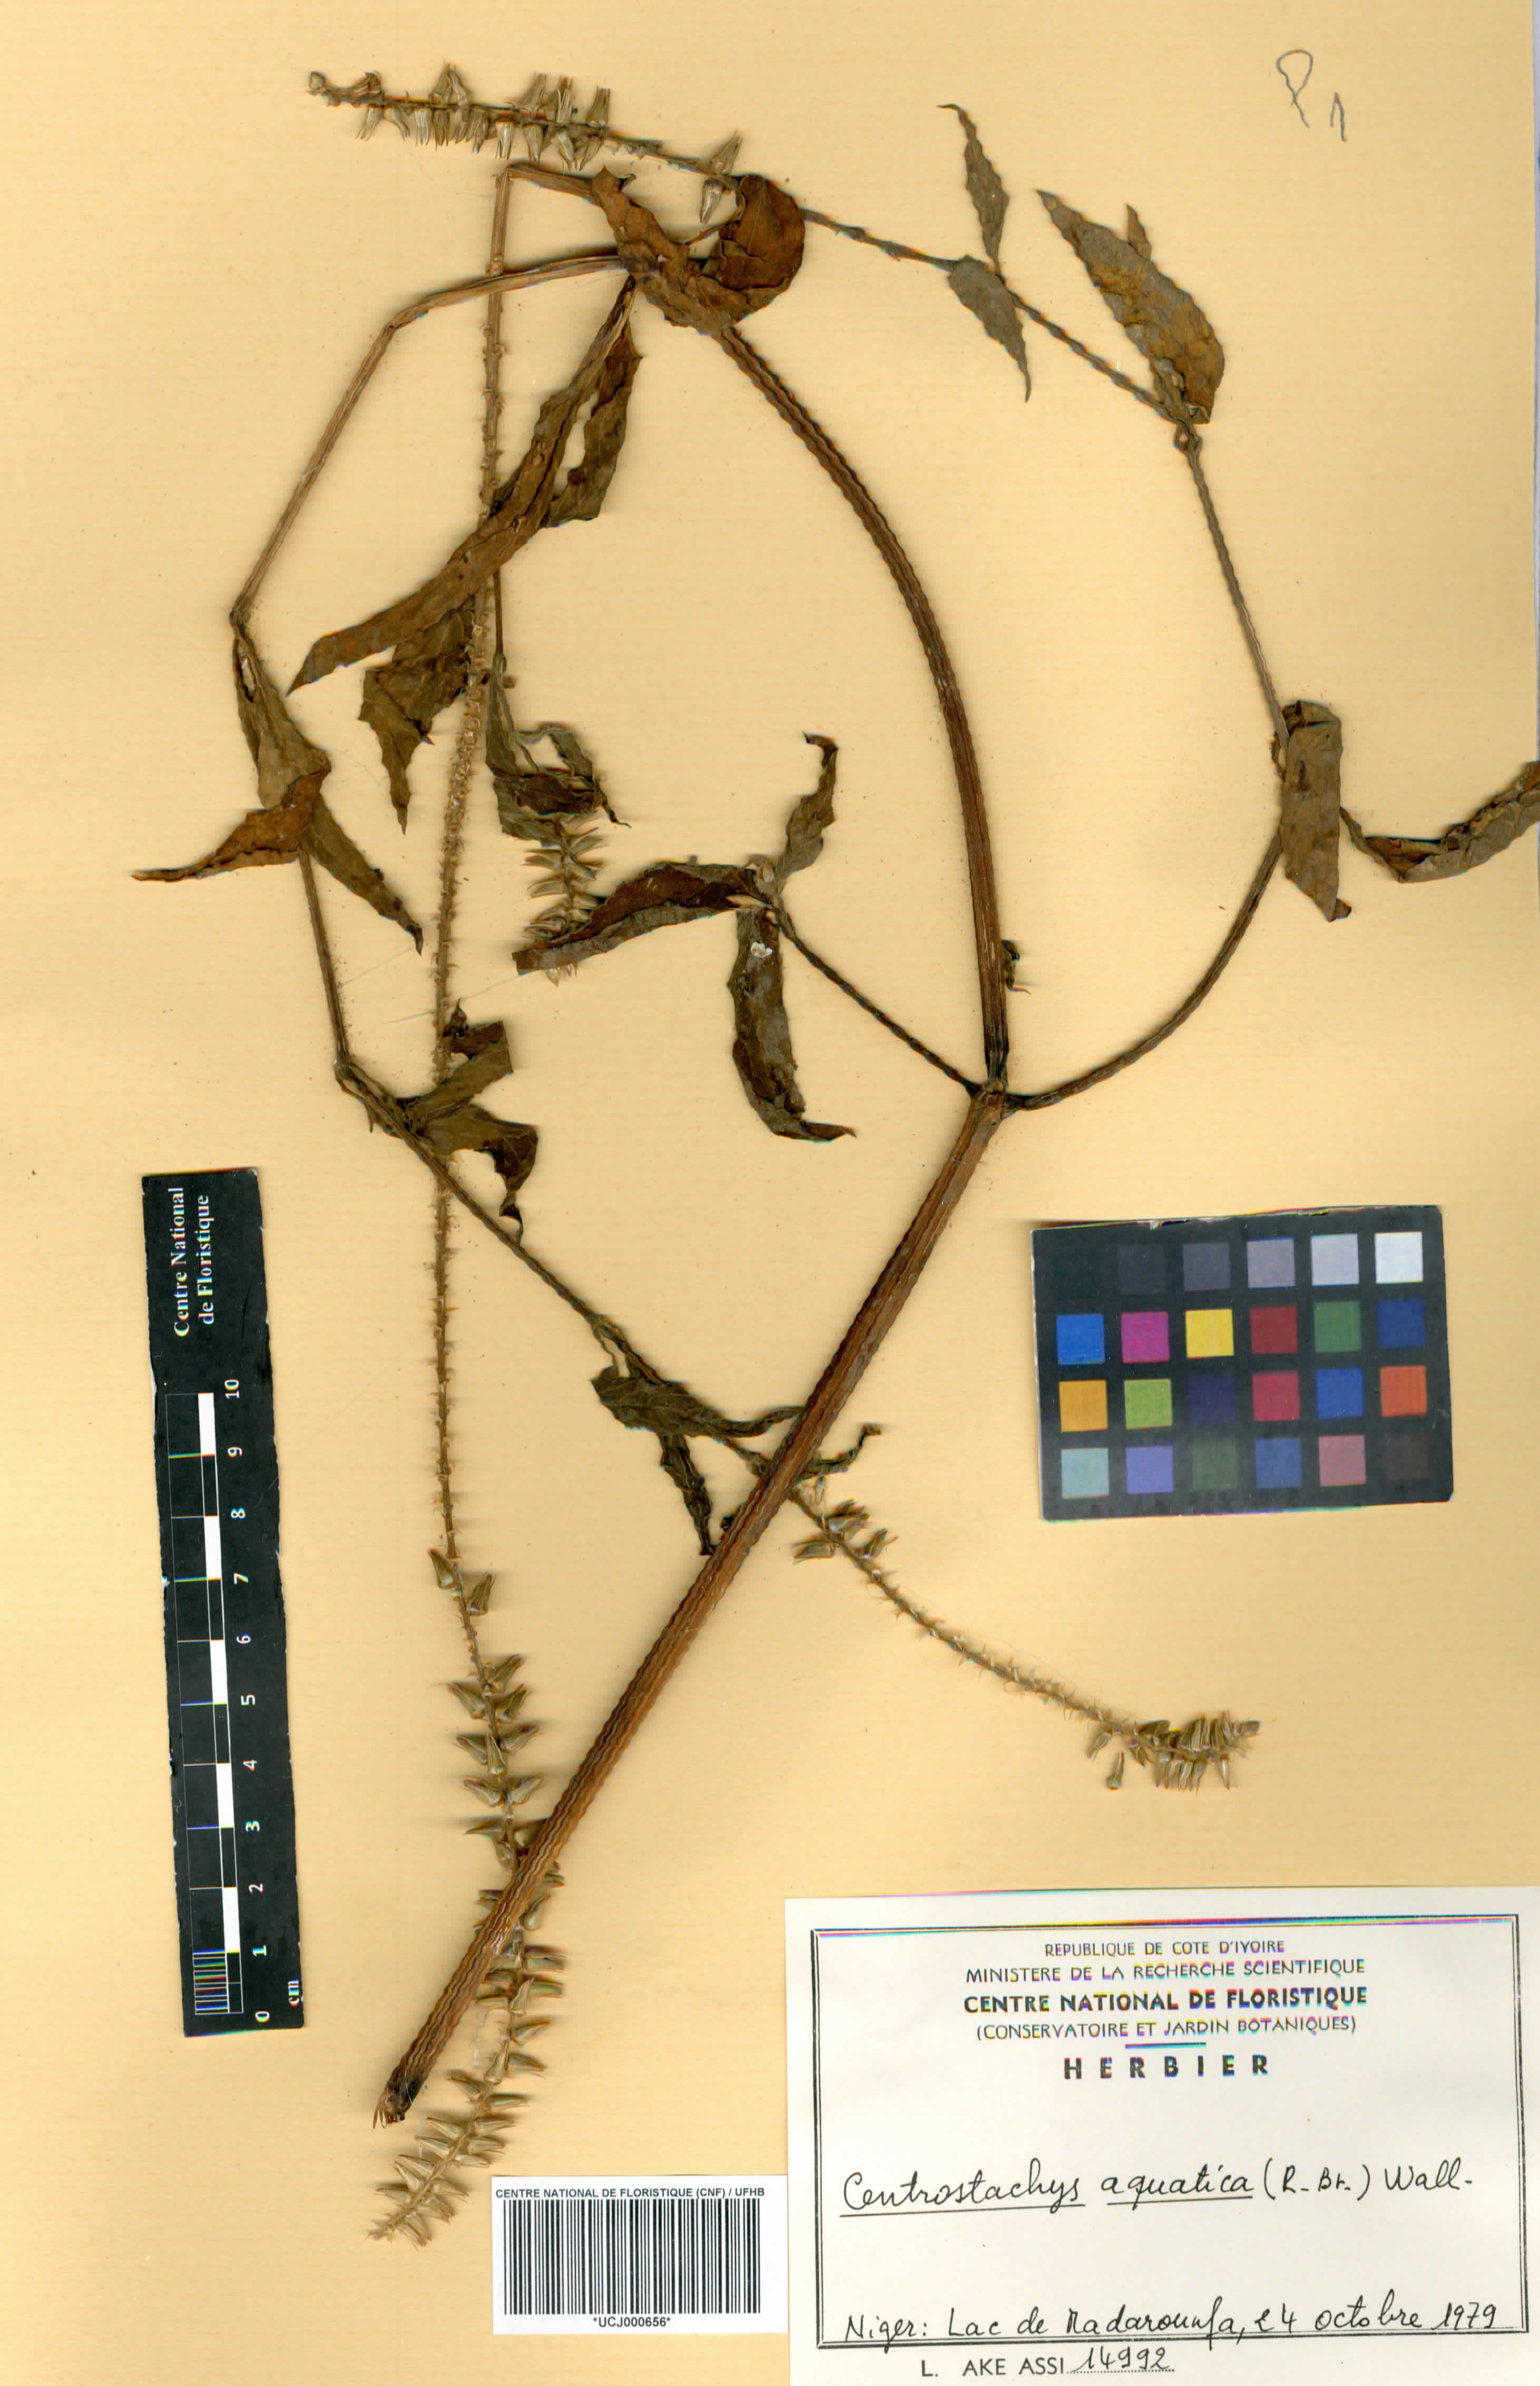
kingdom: Plantae
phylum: Tracheophyta
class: Magnoliopsida
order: Caryophyllales
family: Amaranthaceae
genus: Centrostachys
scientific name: Centrostachys aquatica
